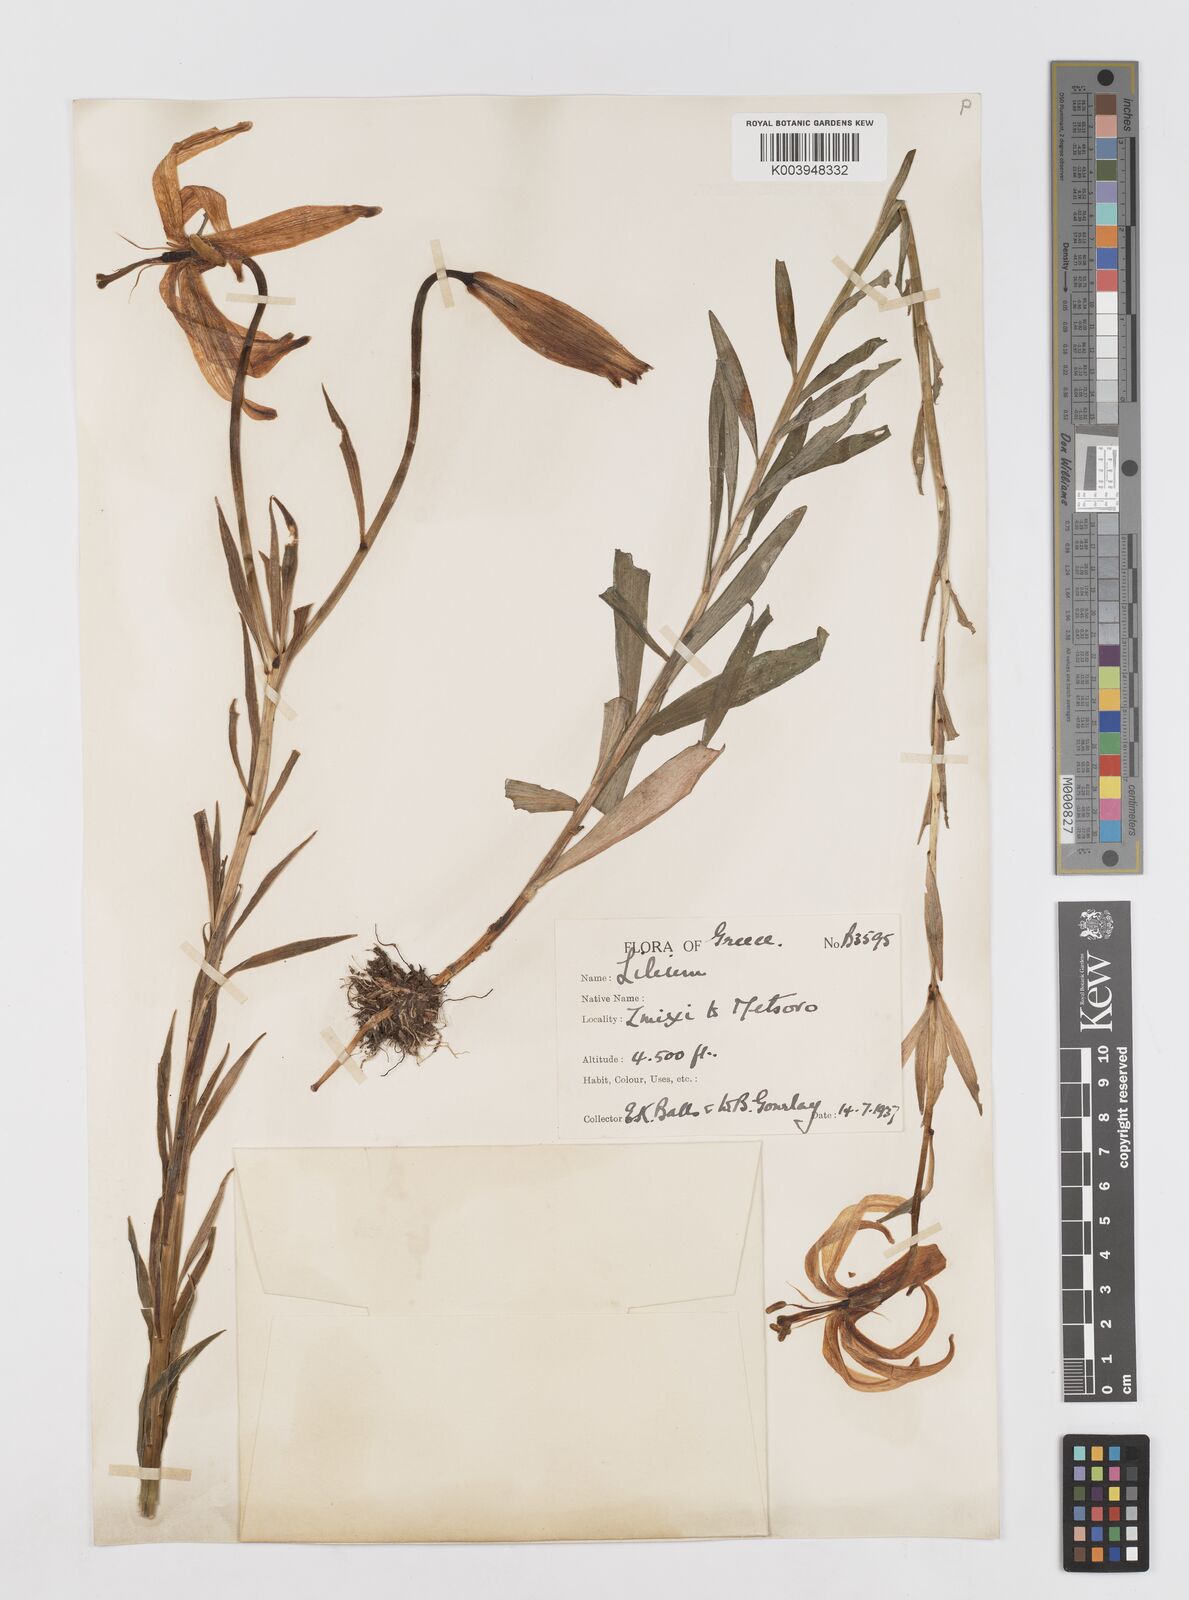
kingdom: Plantae
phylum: Tracheophyta
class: Liliopsida
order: Liliales
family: Liliaceae
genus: Lilium
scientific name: Lilium chalcedonicum
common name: Red martagon of constantinople
